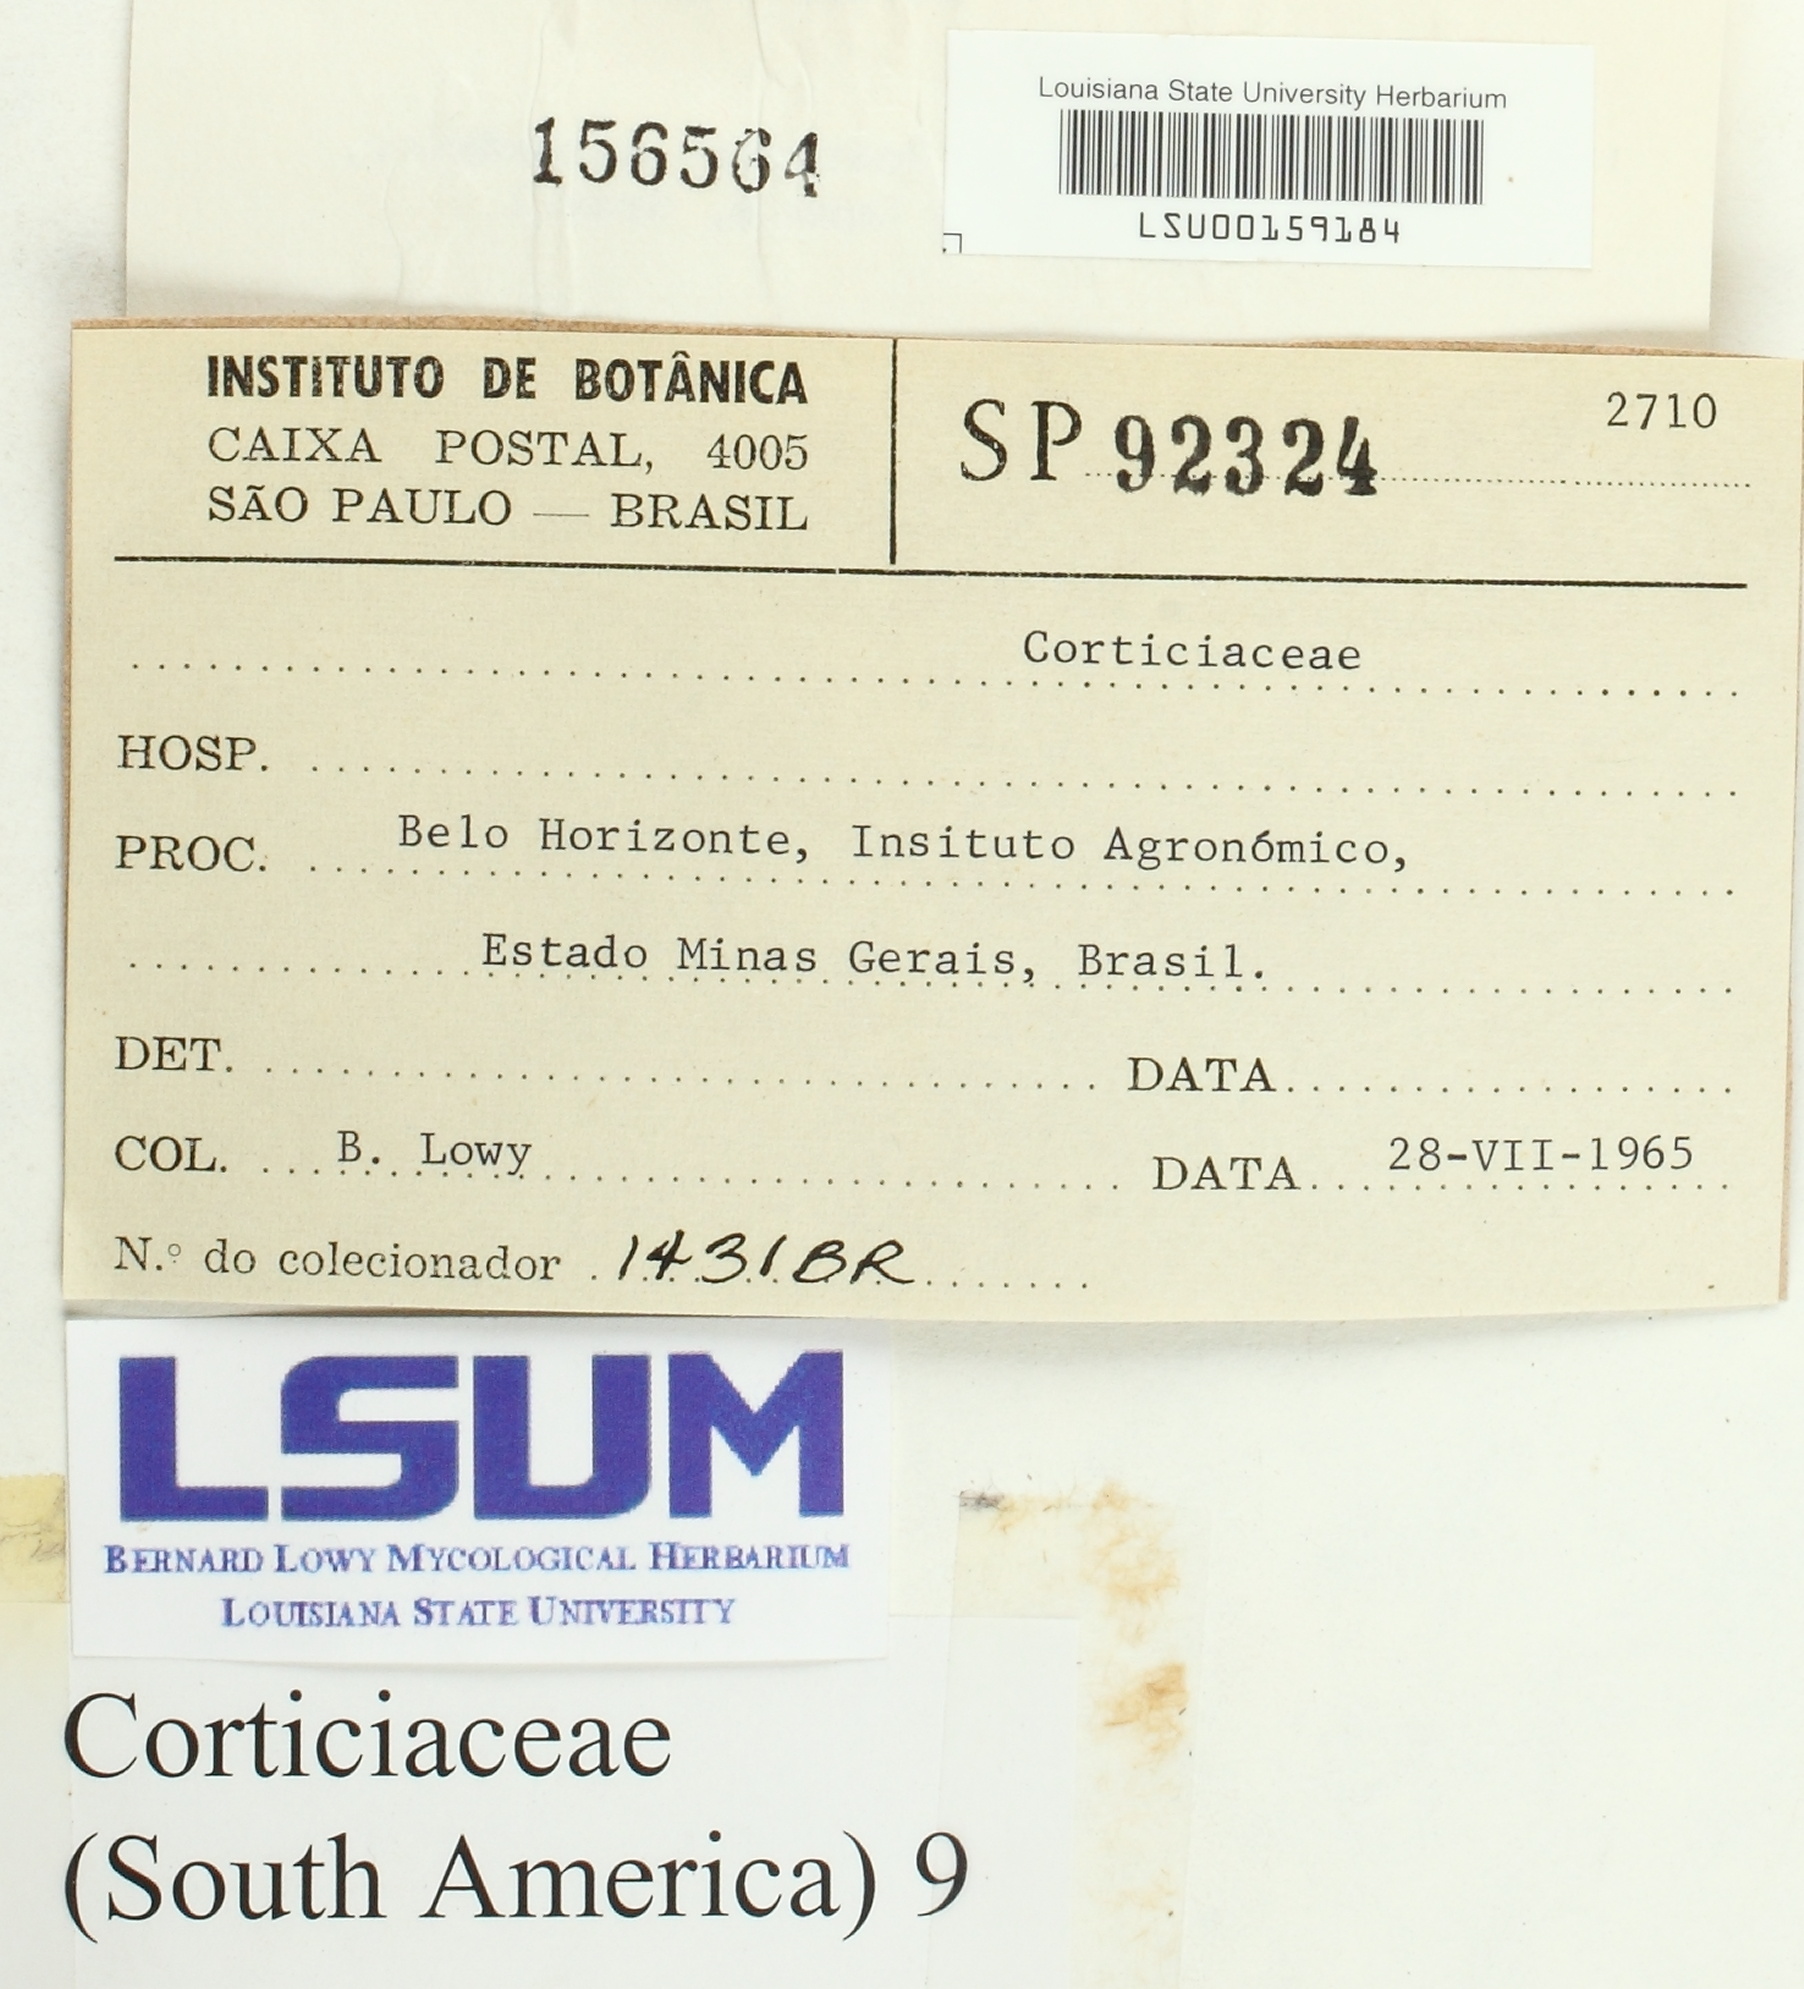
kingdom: Fungi
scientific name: Fungi
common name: Fungi
